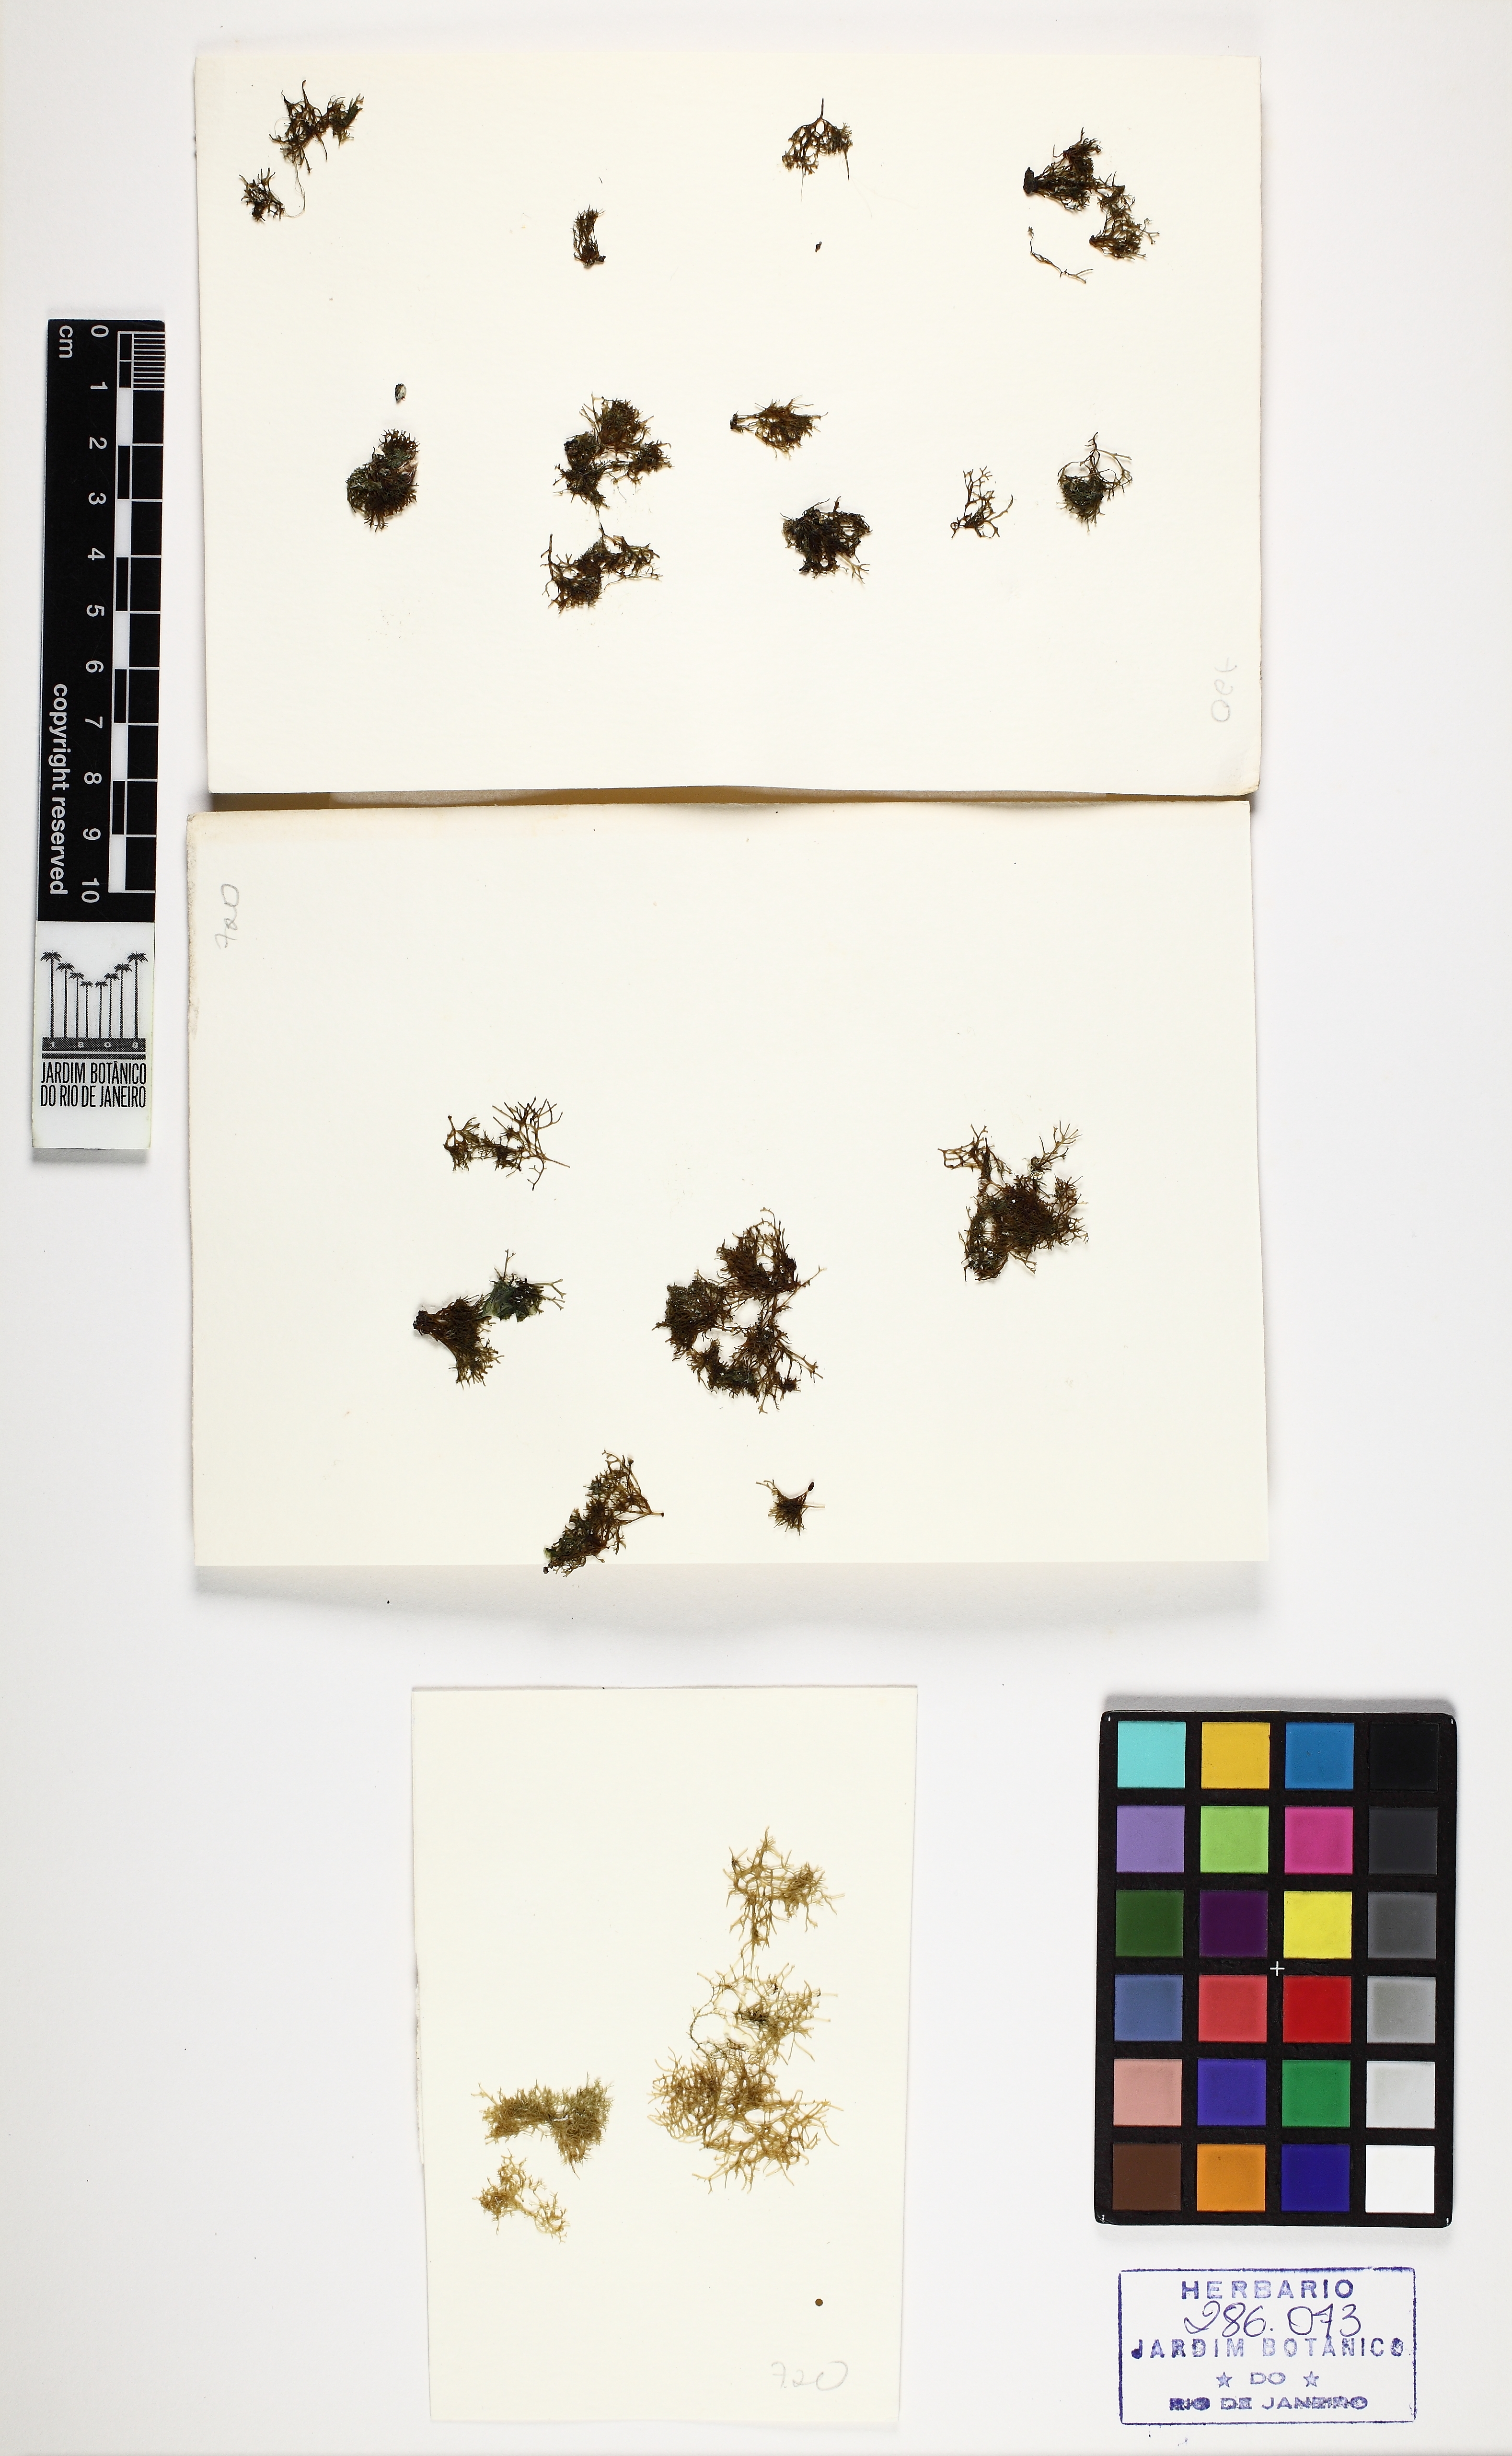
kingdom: Plantae
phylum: Rhodophyta
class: Florideophyceae
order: Gigartinales
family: Phyllophoraceae
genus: Gymnogongrus
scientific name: Gymnogongrus griffithsiae
